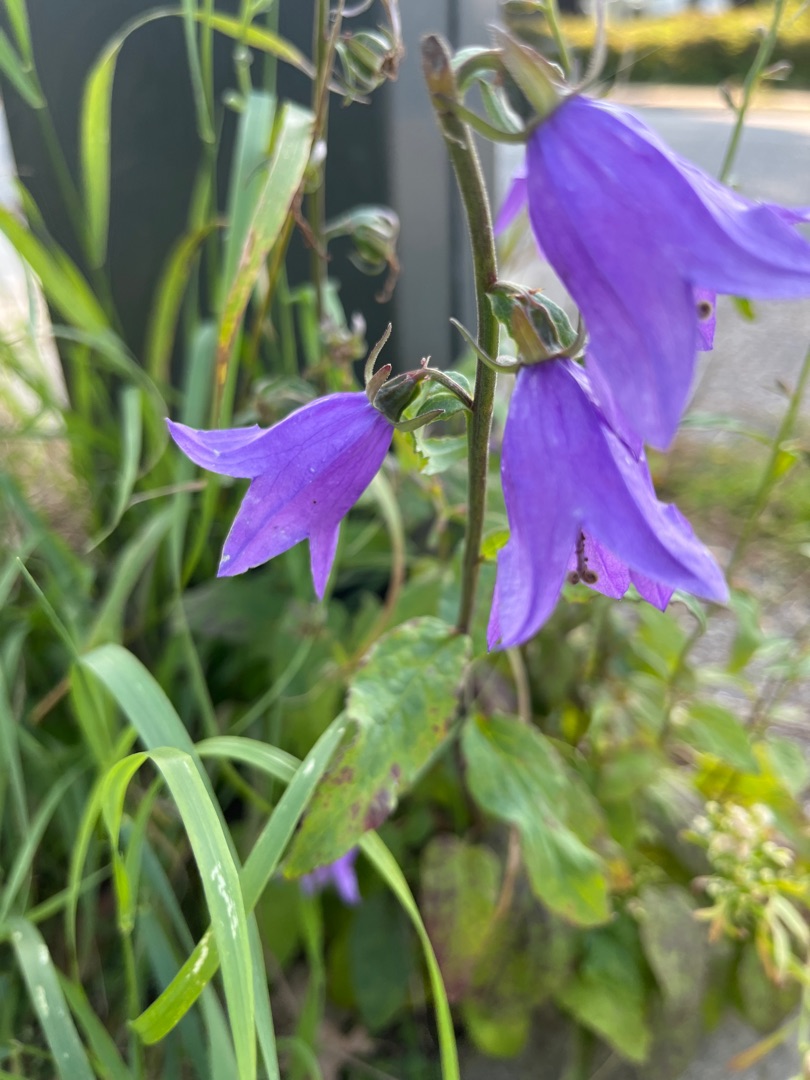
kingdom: Plantae
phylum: Tracheophyta
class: Magnoliopsida
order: Asterales
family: Campanulaceae
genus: Campanula
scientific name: Campanula rapunculoides
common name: Ensidig klokke
